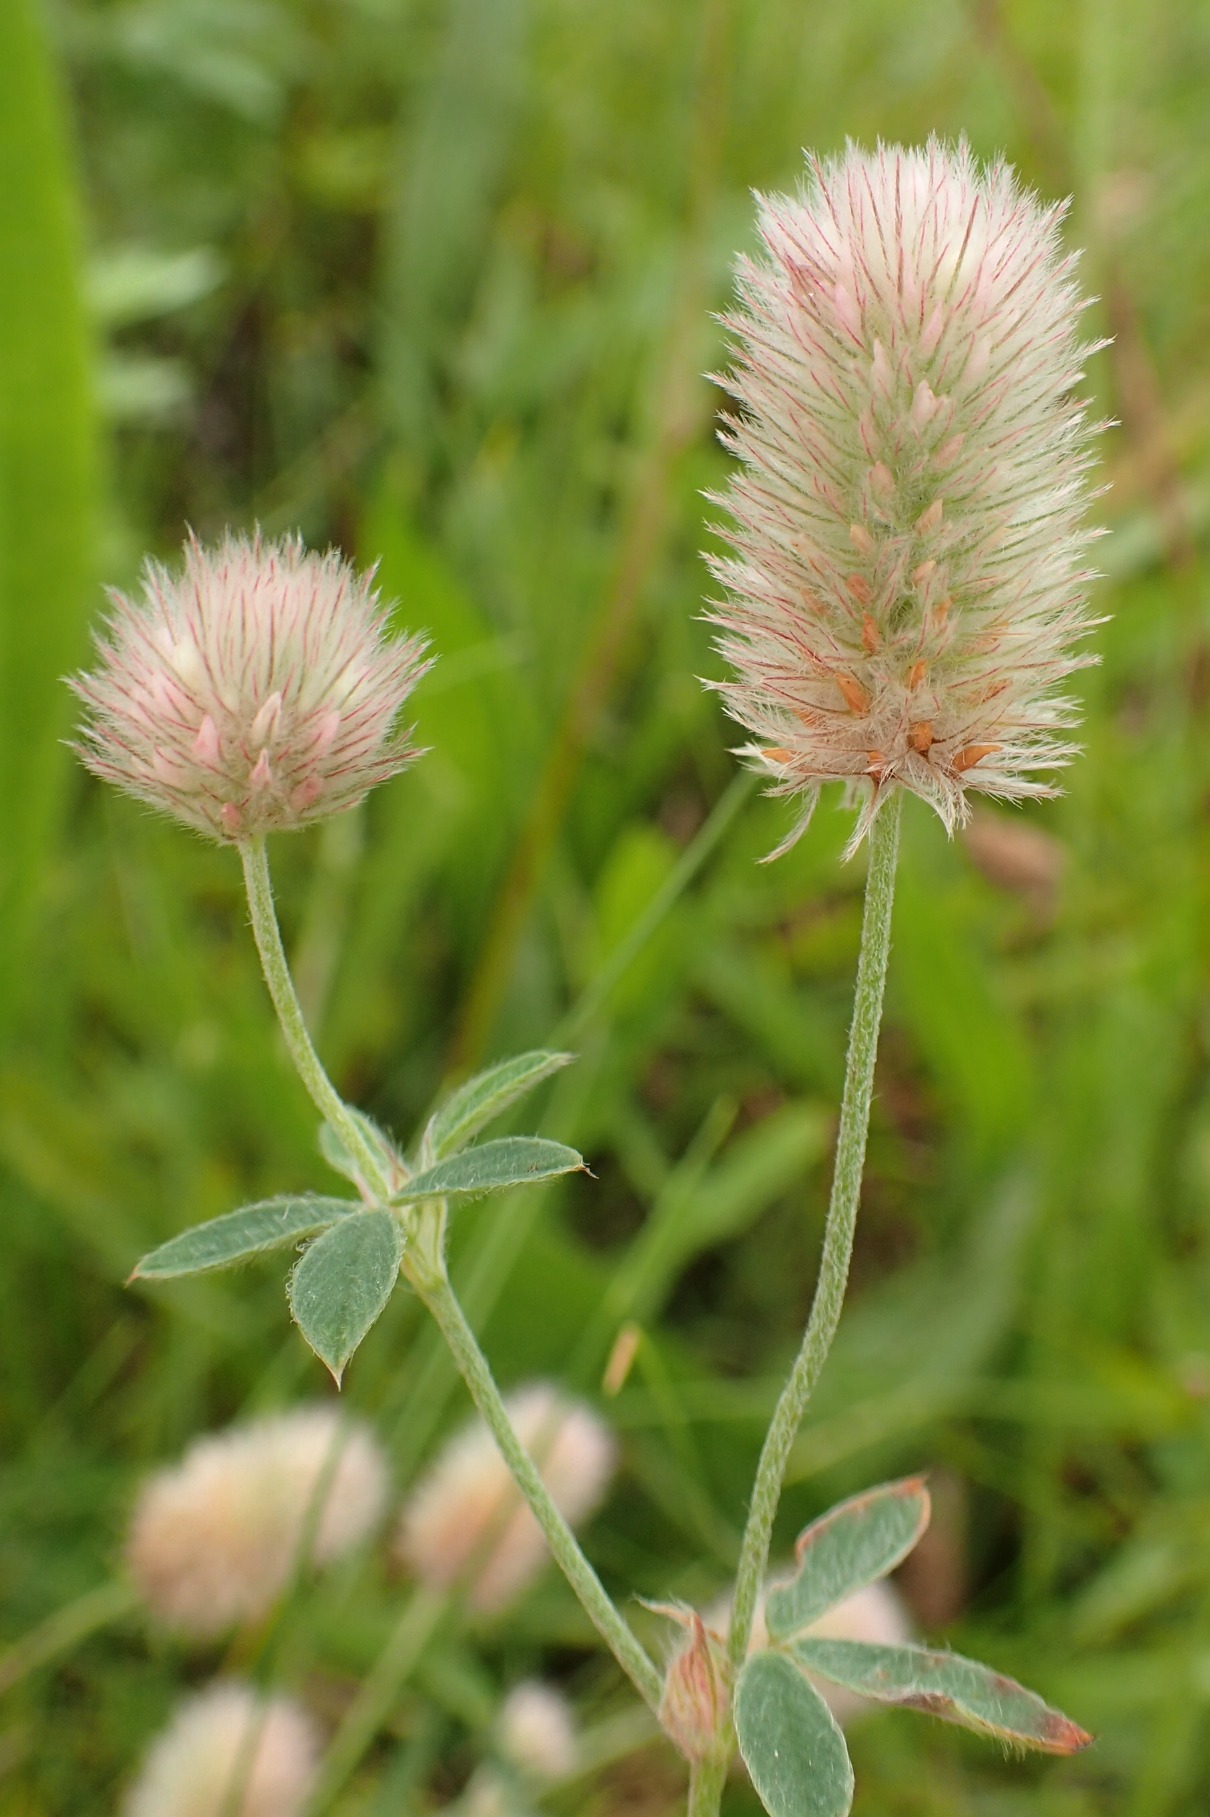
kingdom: Plantae
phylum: Tracheophyta
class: Magnoliopsida
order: Fabales
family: Fabaceae
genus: Trifolium
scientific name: Trifolium arvense
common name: Hare-kløver
